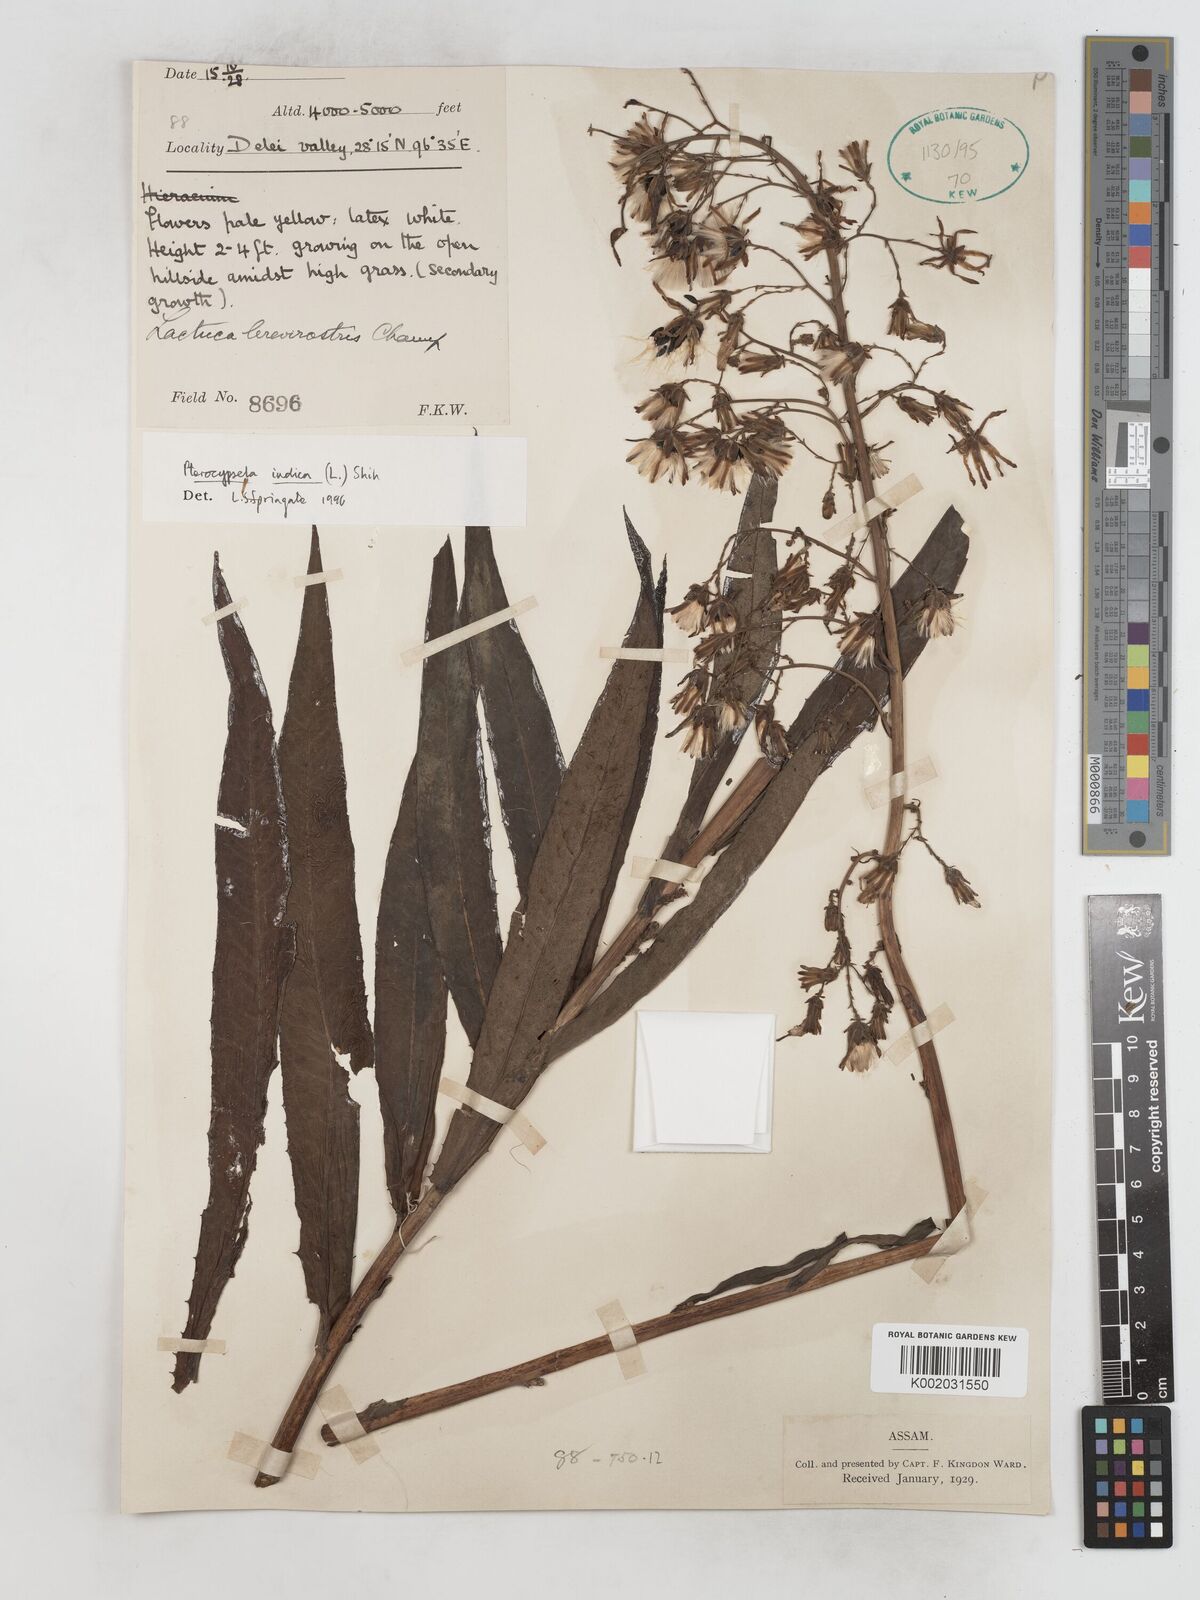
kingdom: Plantae
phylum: Tracheophyta
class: Magnoliopsida
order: Asterales
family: Asteraceae
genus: Lactuca
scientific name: Lactuca indica
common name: Wild lettuce
